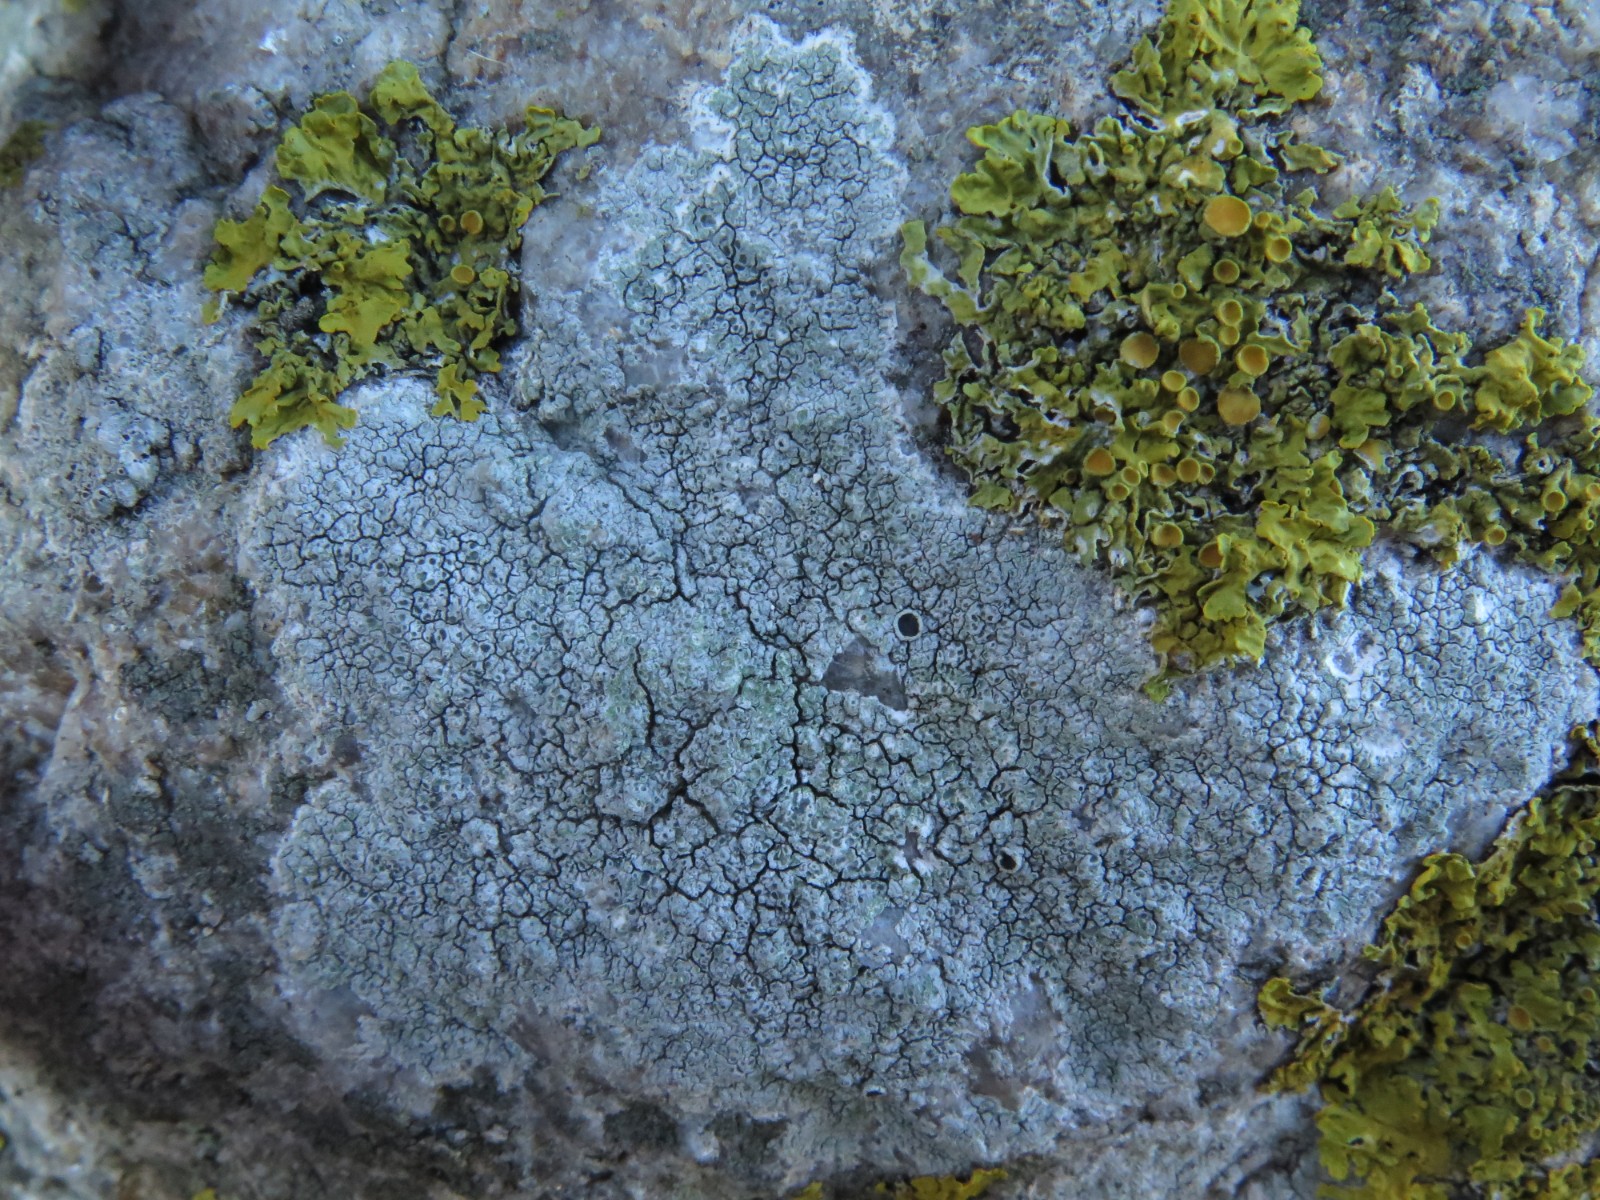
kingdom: Fungi
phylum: Ascomycota
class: Lecanoromycetes
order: Lecanorales
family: Tephromelataceae
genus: Tephromela
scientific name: Tephromela atra
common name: sortfrugtet kantskivelav
